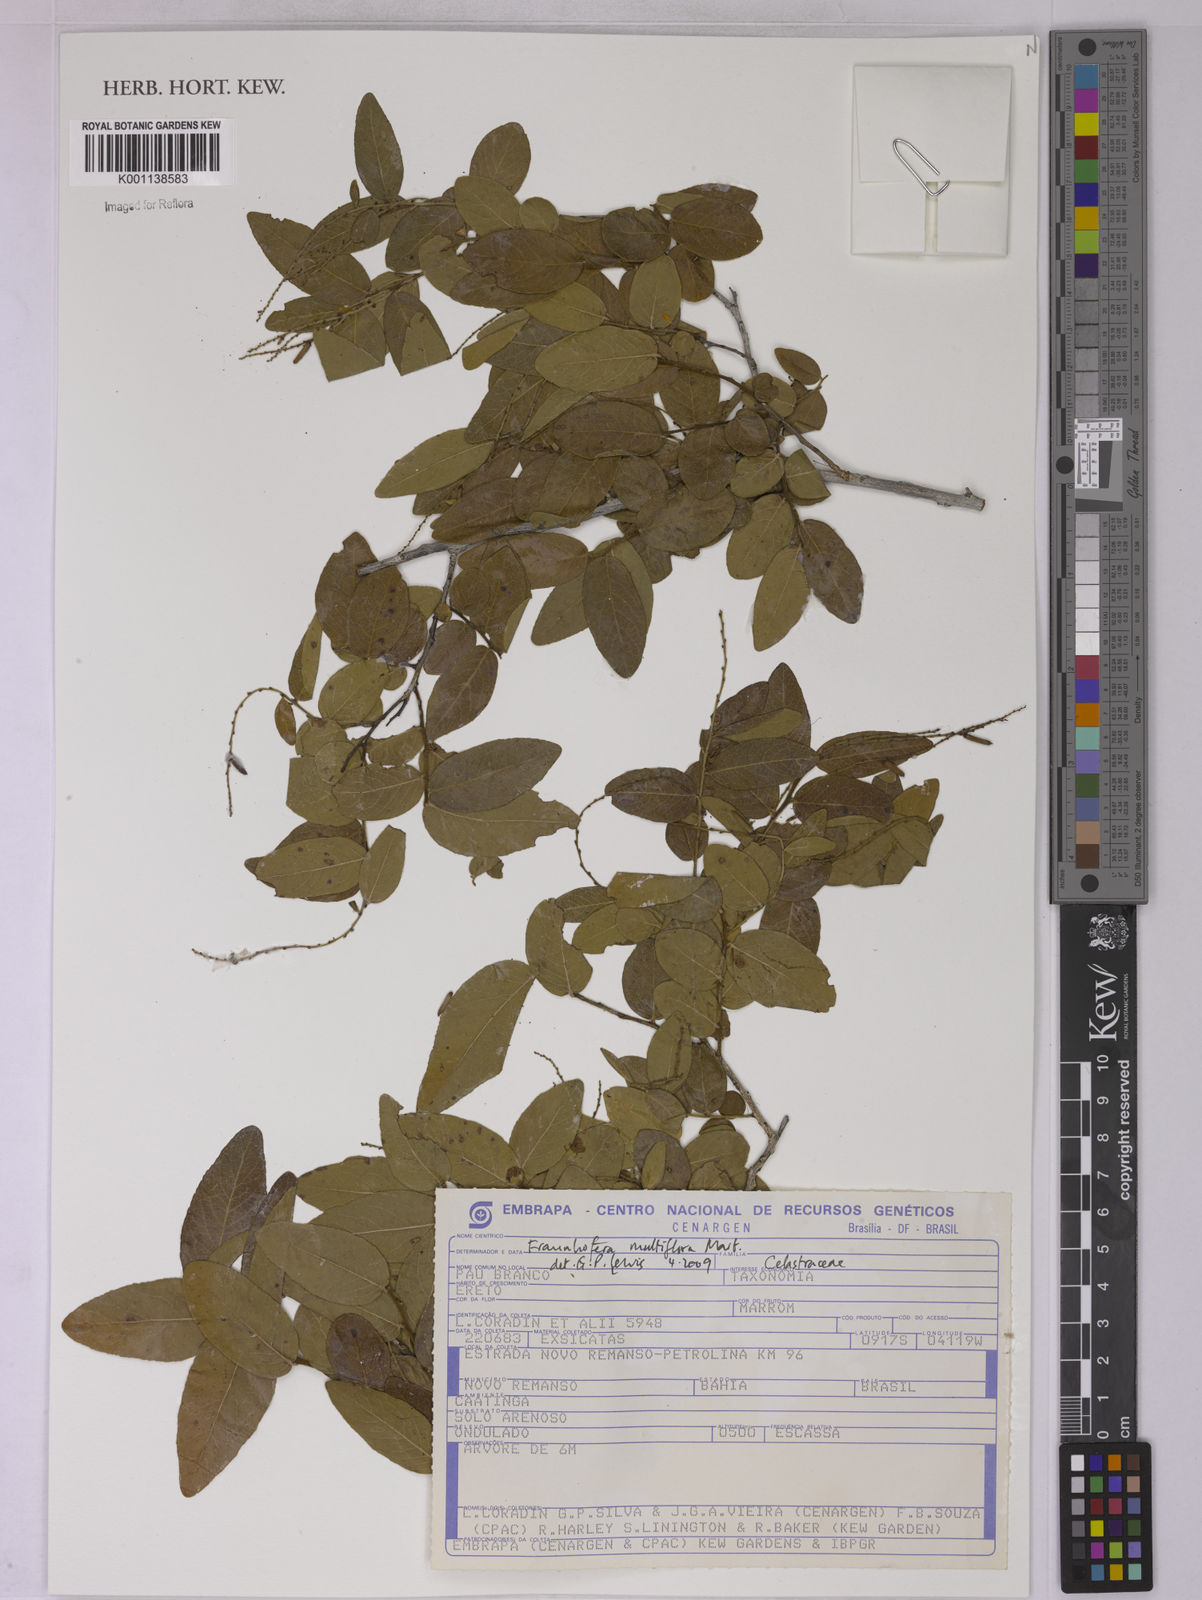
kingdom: Plantae
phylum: Tracheophyta
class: Magnoliopsida
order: Celastrales
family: Celastraceae
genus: Fraunhofera
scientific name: Fraunhofera multiflora
